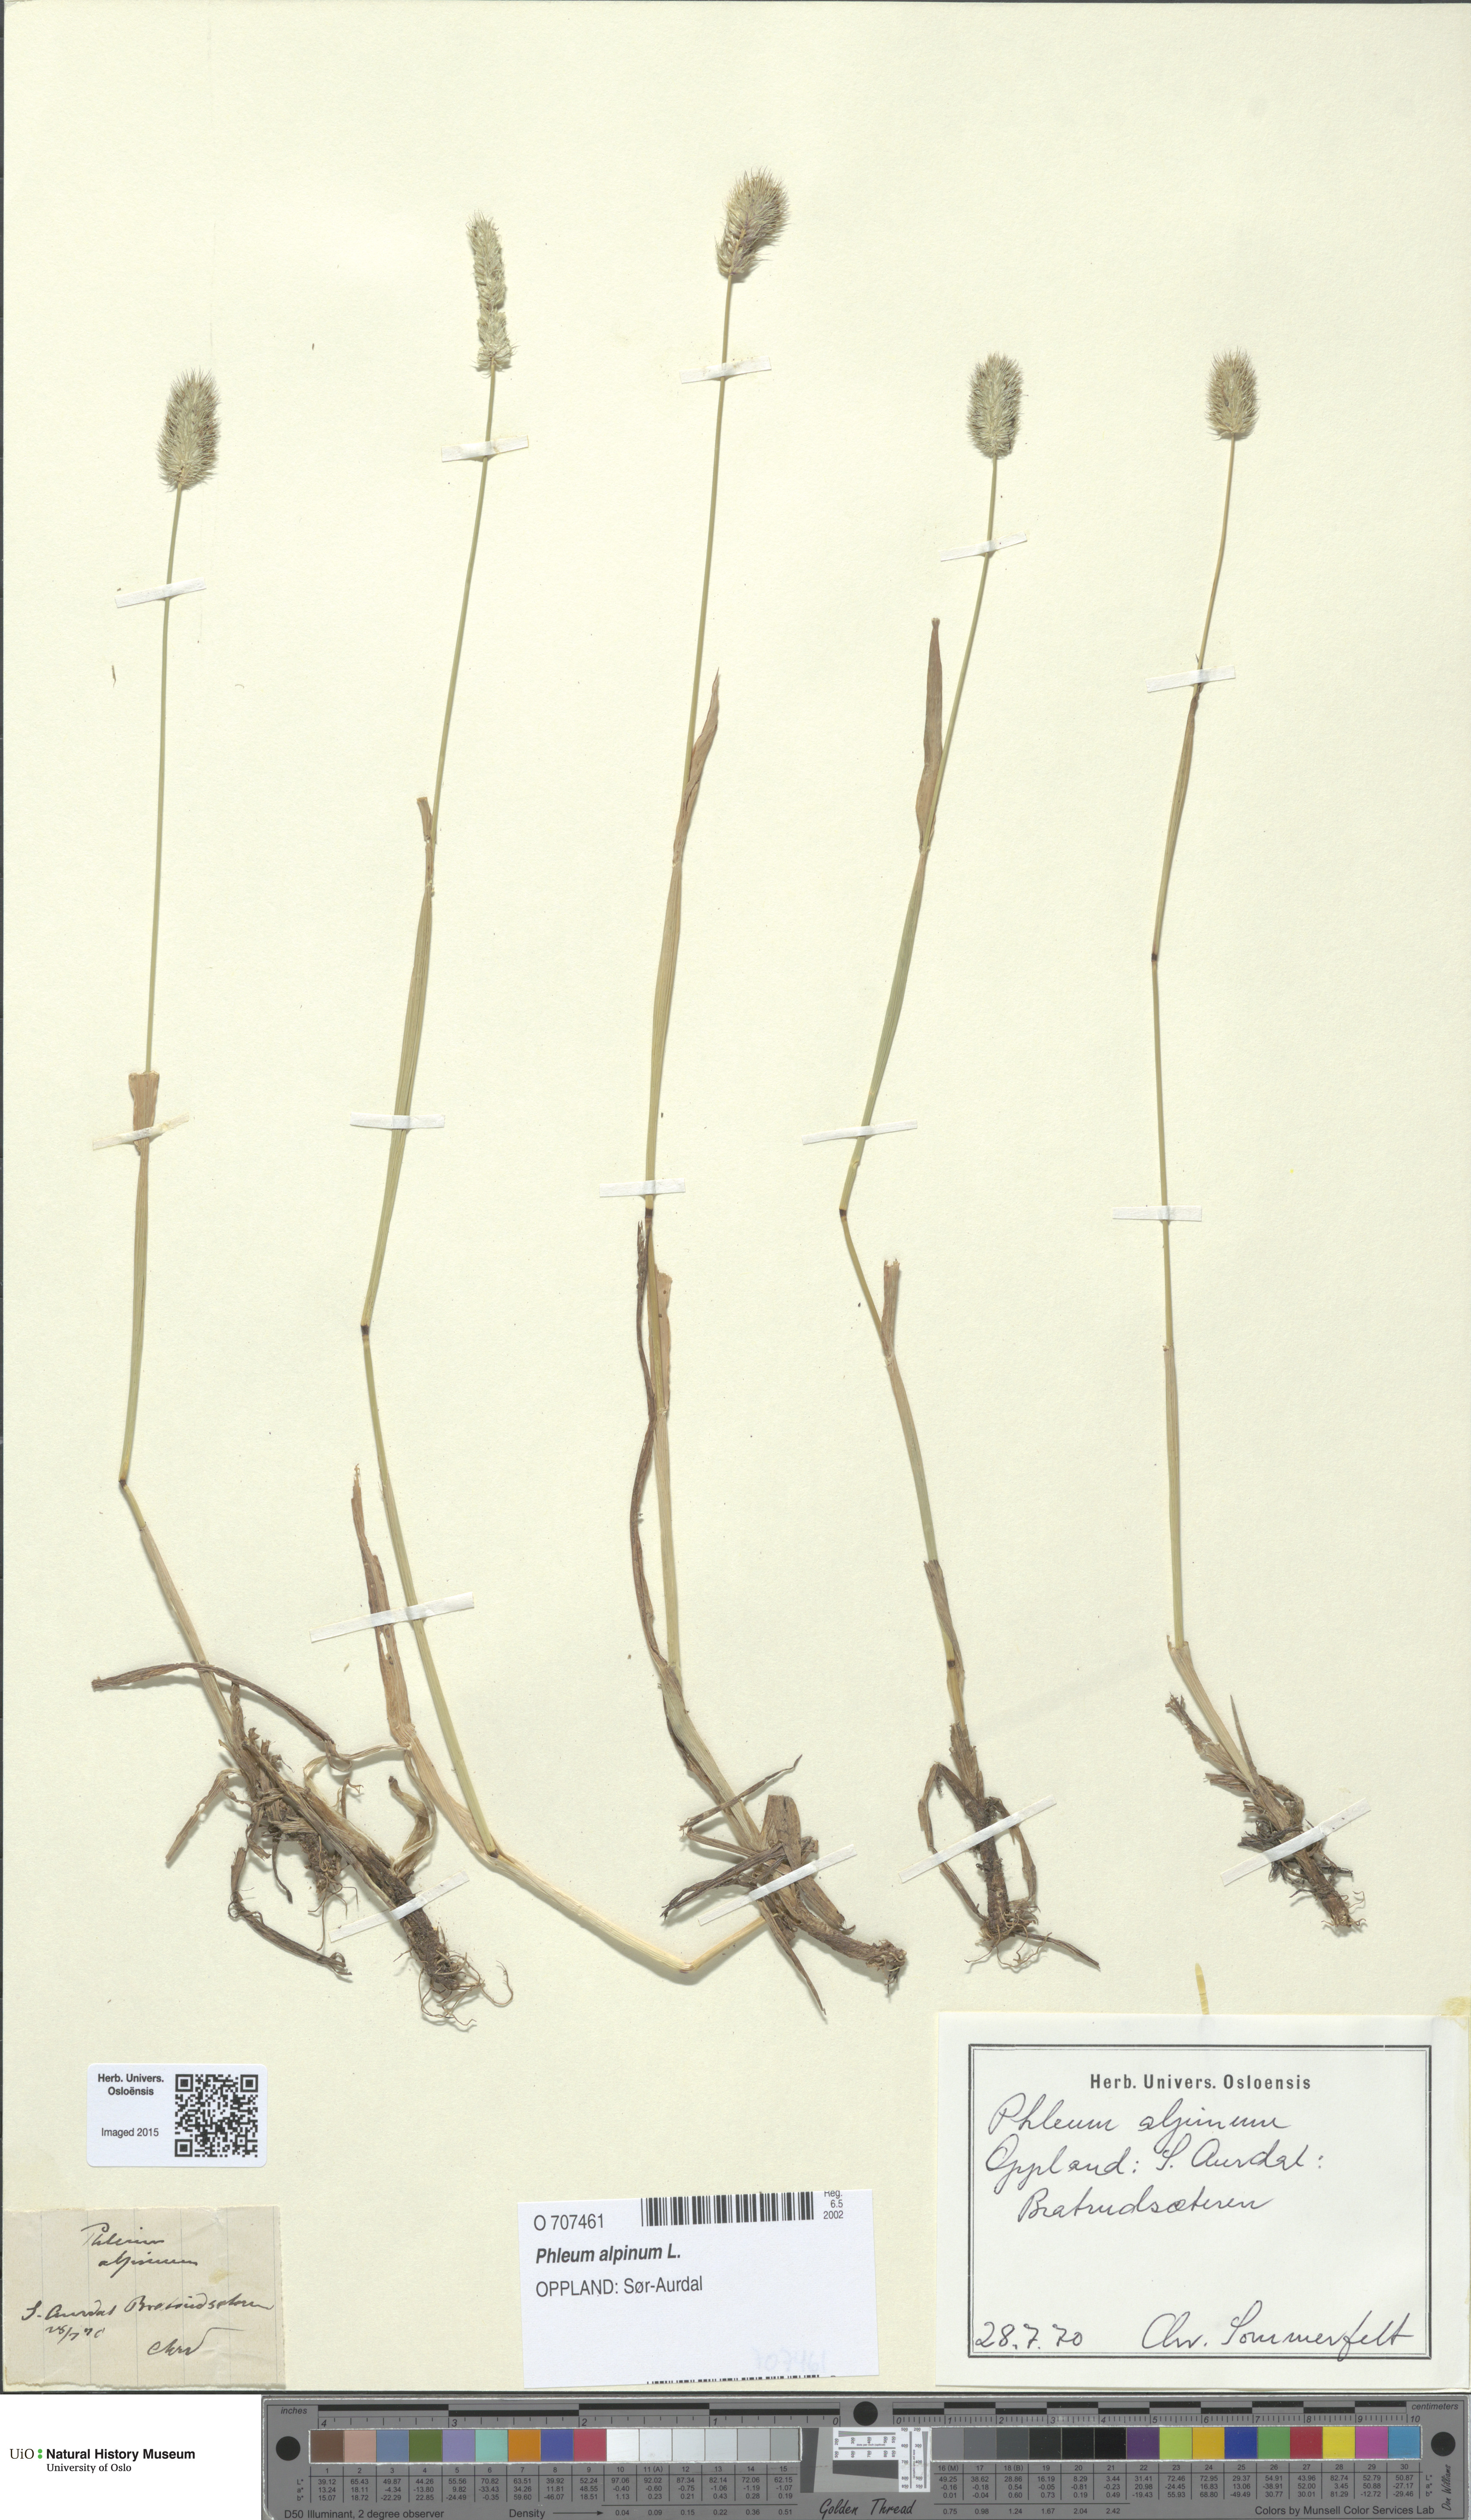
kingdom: Plantae
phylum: Tracheophyta
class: Liliopsida
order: Poales
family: Poaceae
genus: Phleum
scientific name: Phleum alpinum
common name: Alpine cat's-tail
